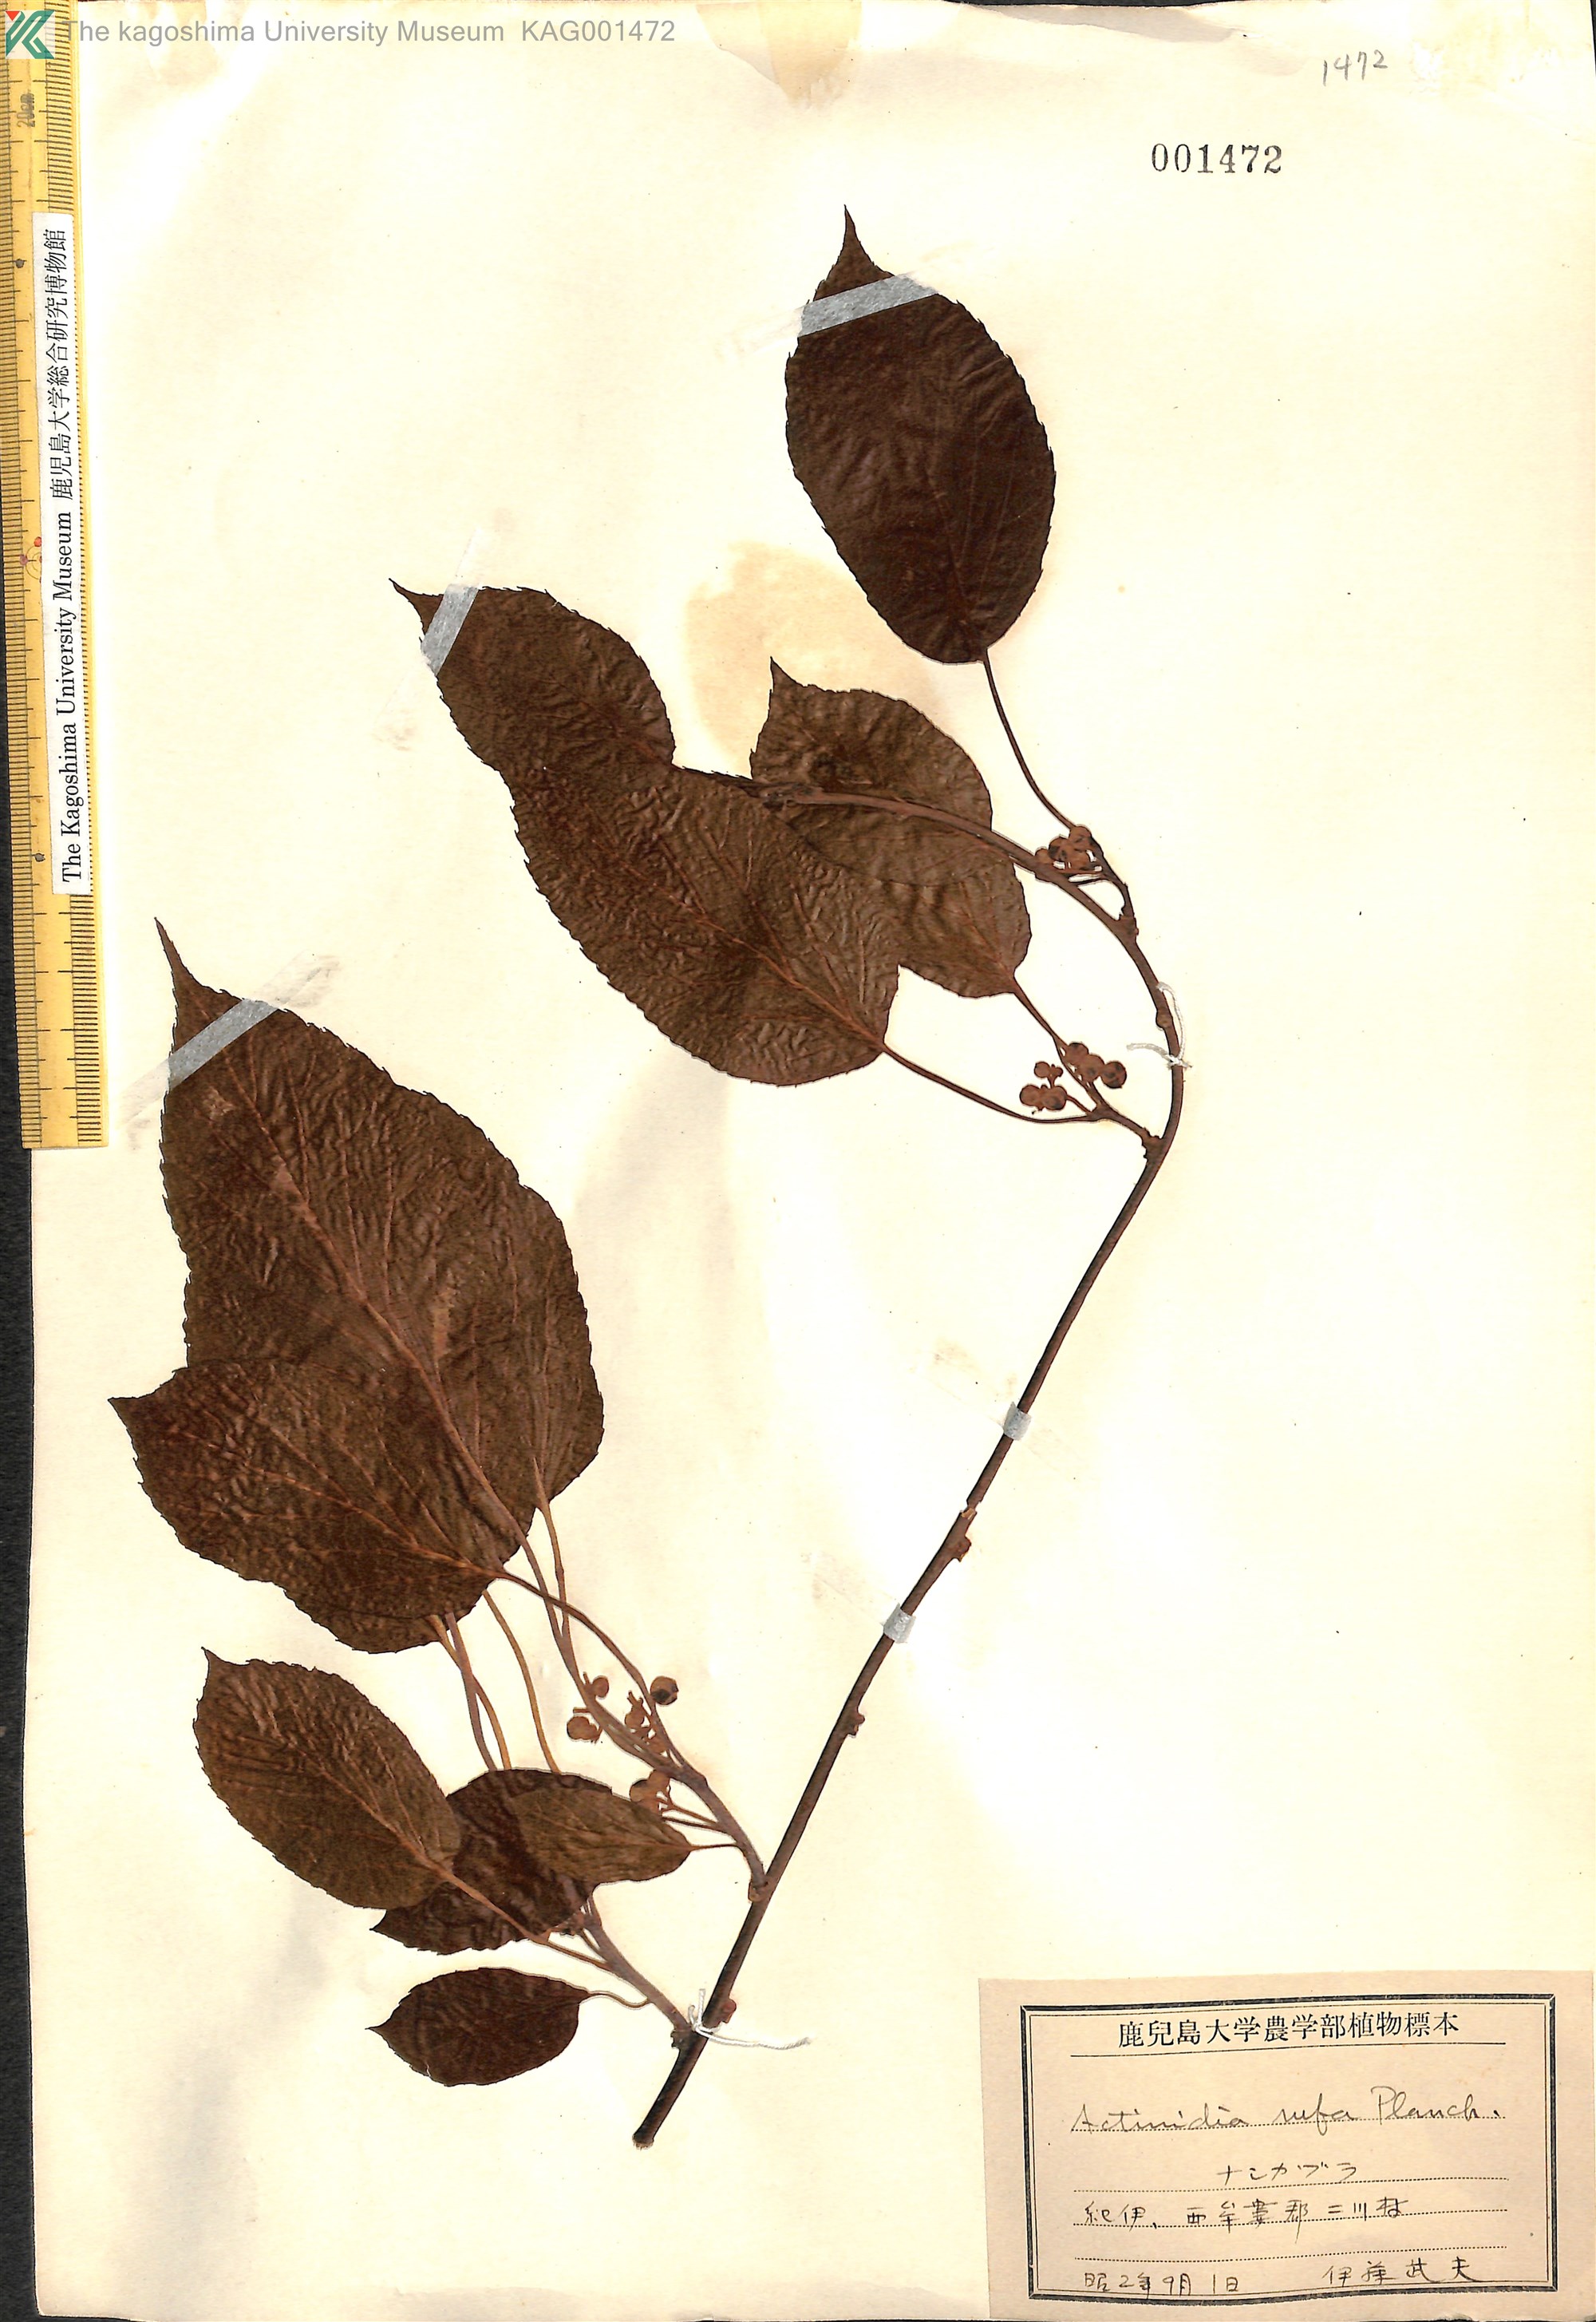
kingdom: Plantae
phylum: Tracheophyta
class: Magnoliopsida
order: Ericales
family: Actinidiaceae
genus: Actinidia
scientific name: Actinidia rufa
